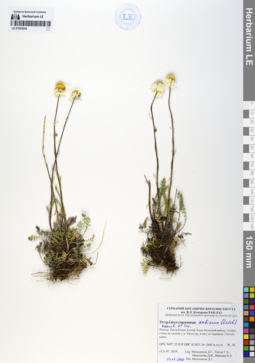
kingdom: Plantae
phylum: Tracheophyta
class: Magnoliopsida
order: Asterales
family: Asteraceae
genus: Tripleurospermum
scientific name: Tripleurospermum ambiguum
